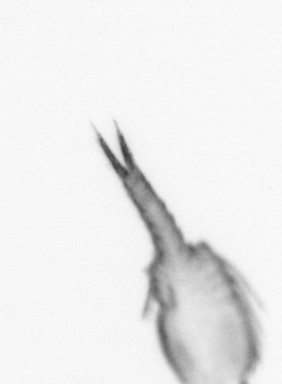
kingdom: Animalia
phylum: Arthropoda
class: Copepoda
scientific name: Copepoda
